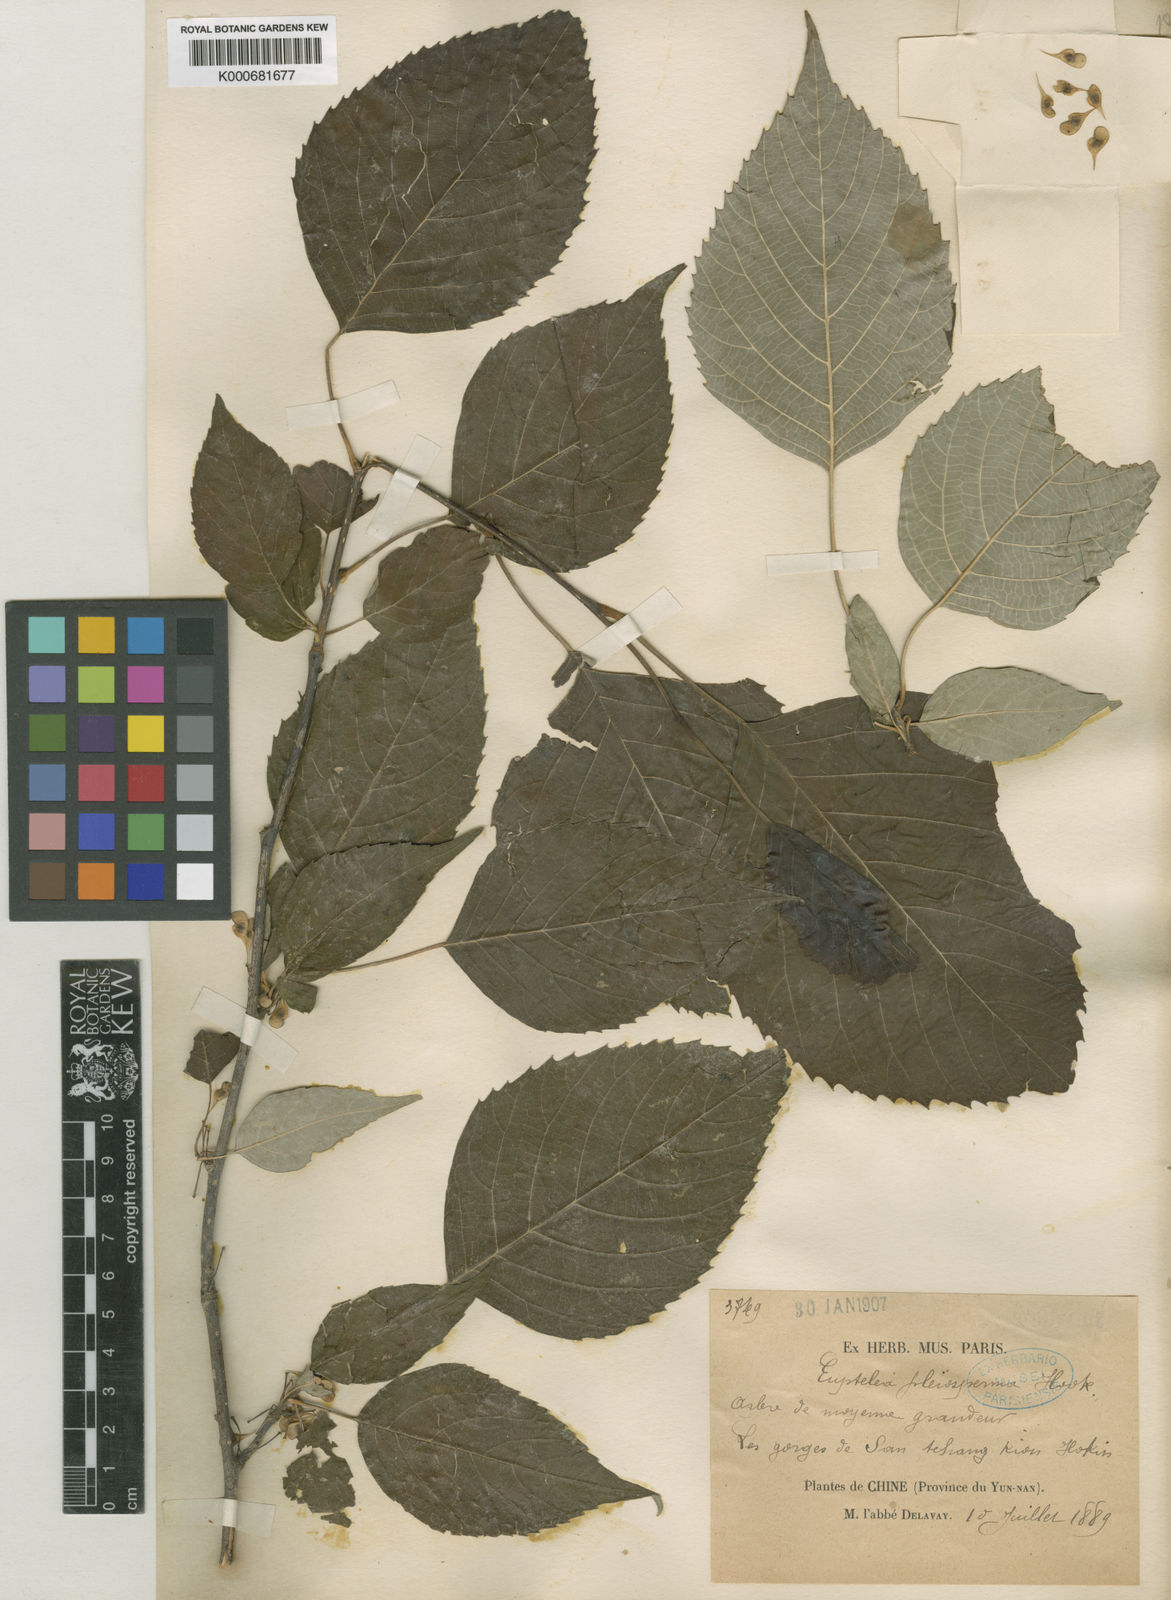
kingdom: Plantae
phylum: Tracheophyta
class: Magnoliopsida
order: Ranunculales
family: Eupteleaceae
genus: Euptelea
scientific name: Euptelea pleiosperma
